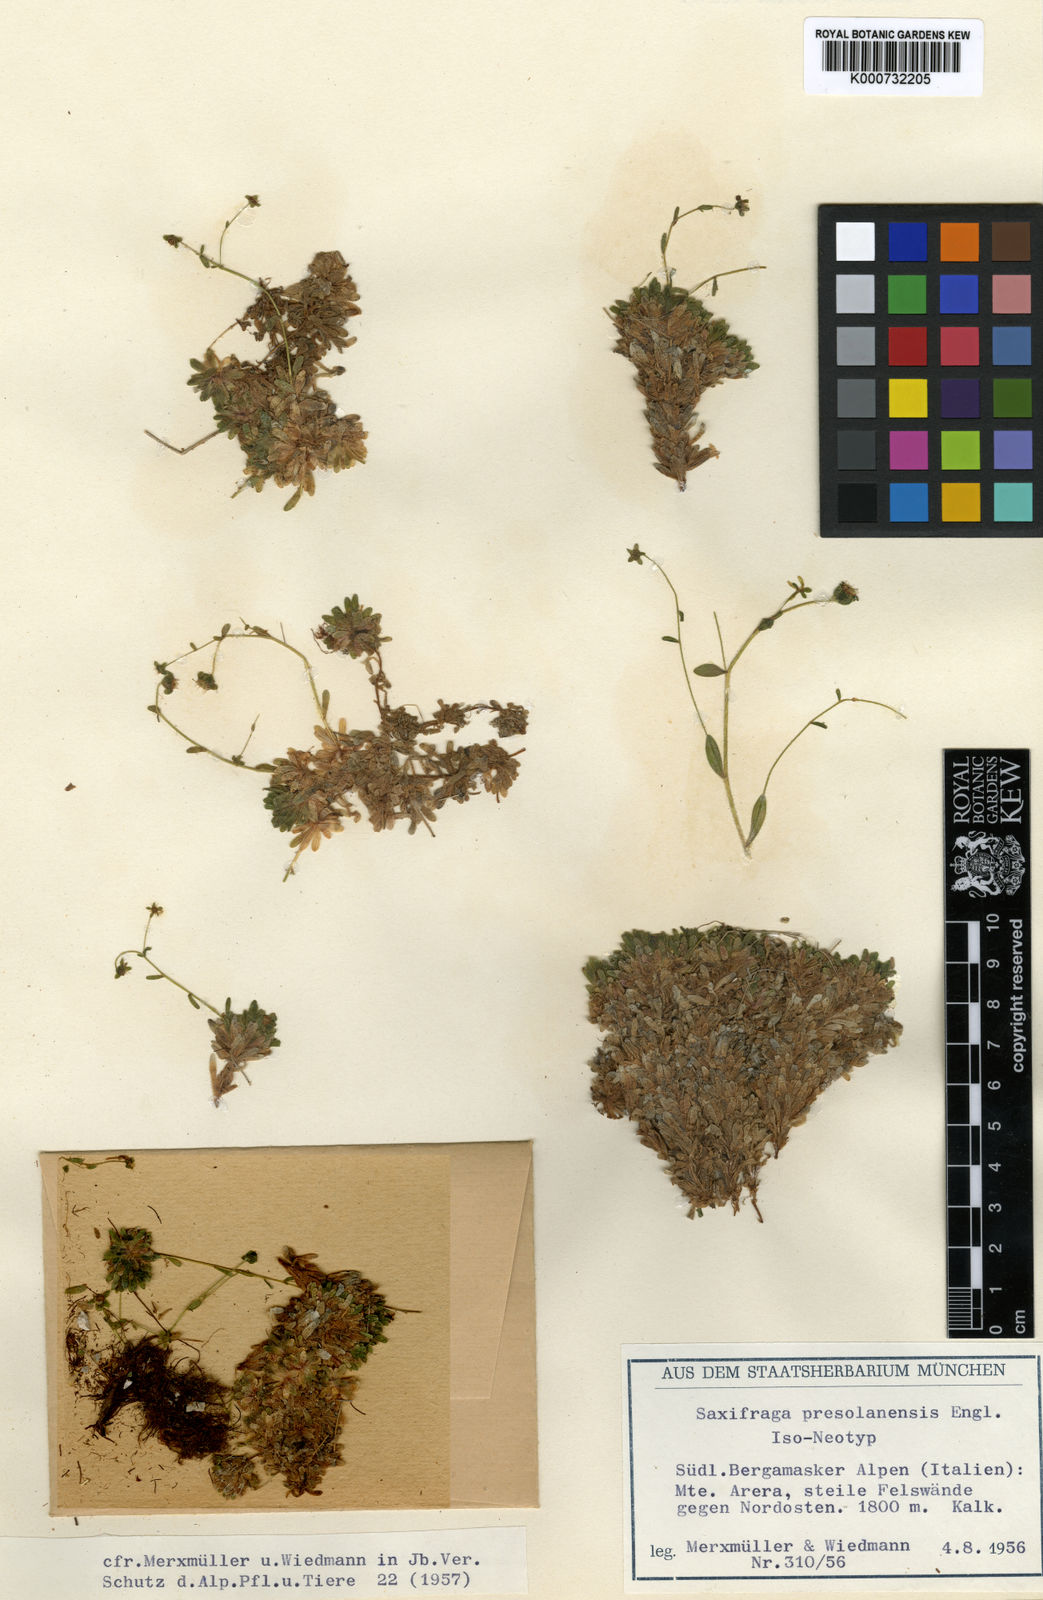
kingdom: Plantae
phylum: Tracheophyta
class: Magnoliopsida
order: Saxifragales
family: Saxifragaceae
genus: Saxifraga
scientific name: Saxifraga presolanensis
